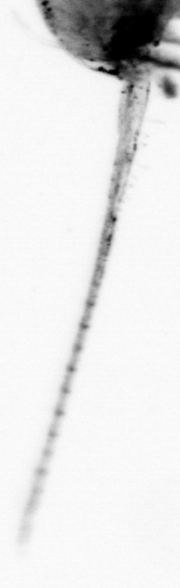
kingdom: Animalia
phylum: Arthropoda
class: Copepoda
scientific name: Copepoda
